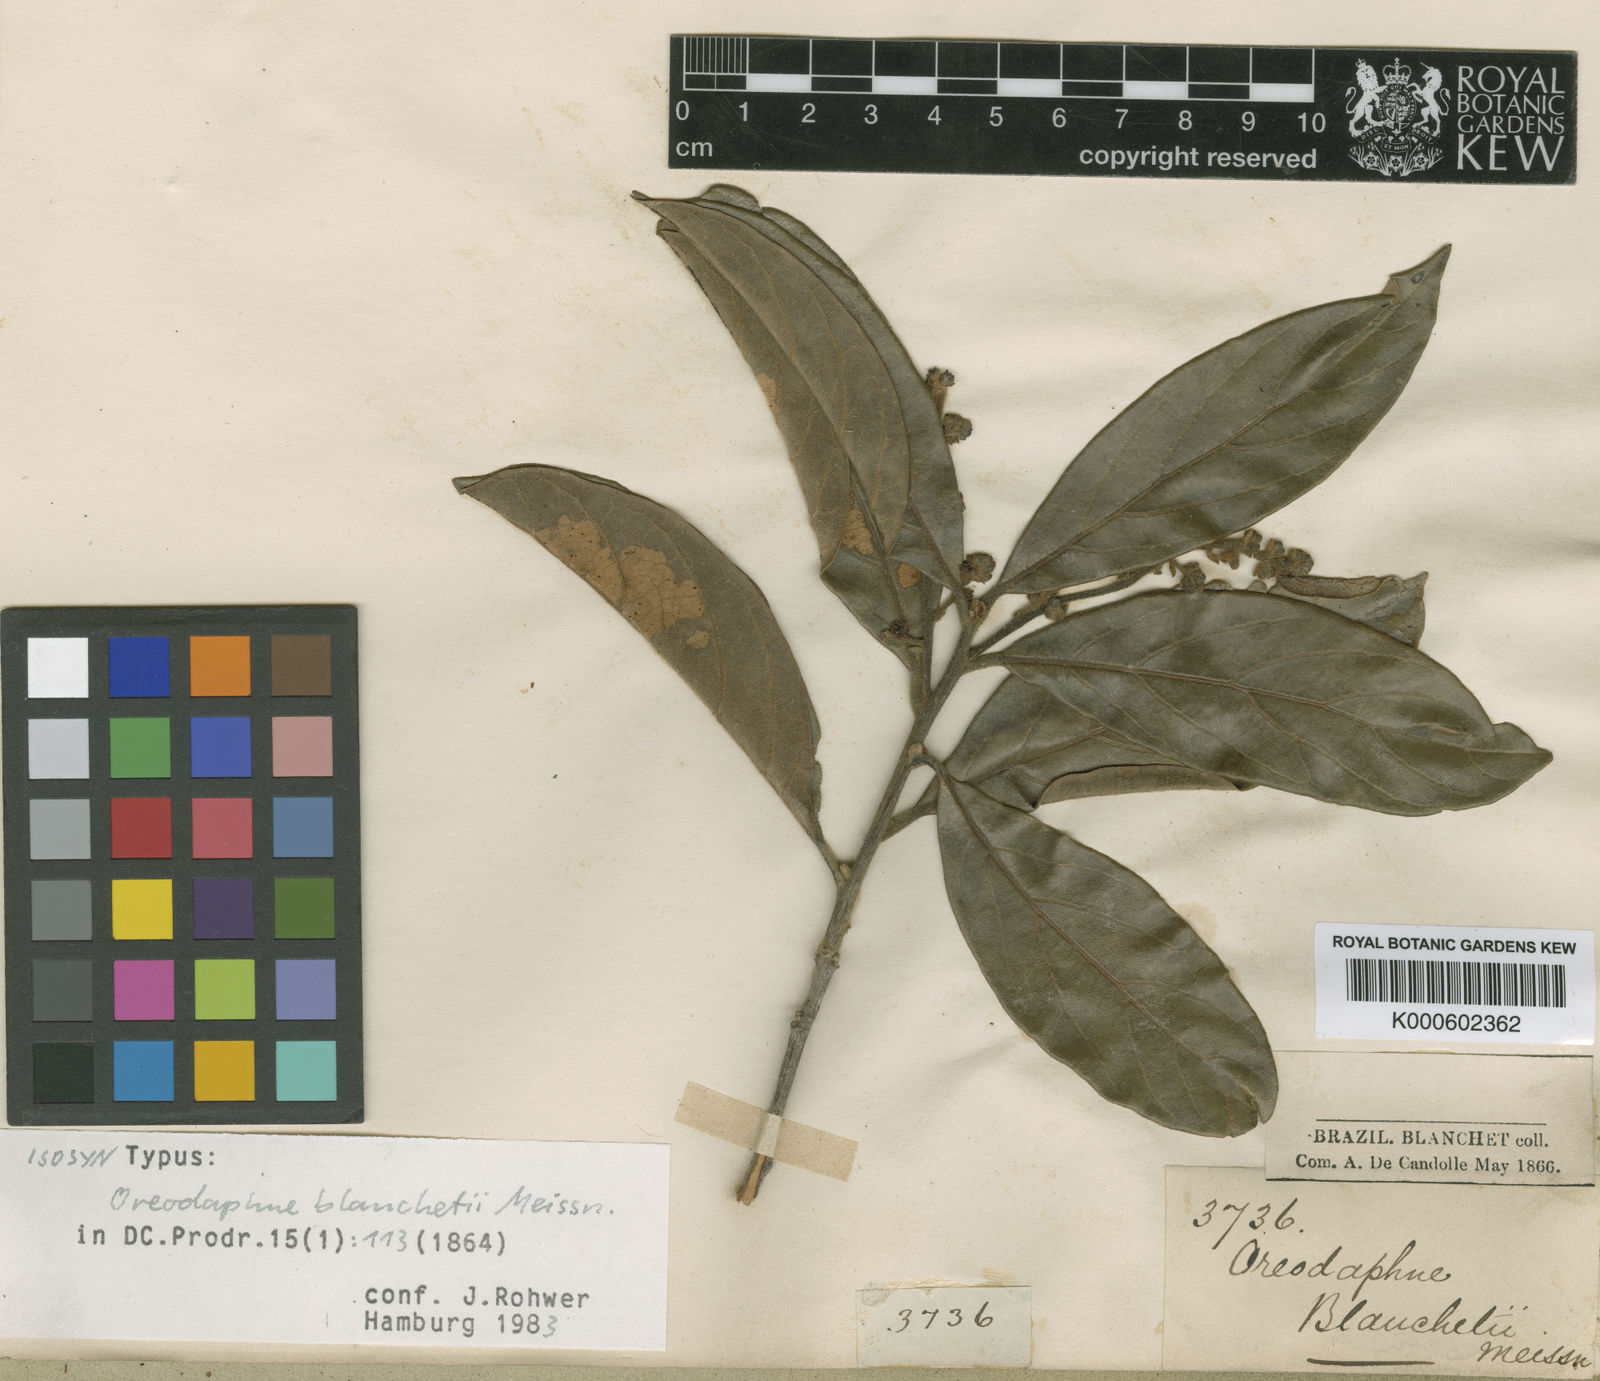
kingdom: Plantae
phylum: Tracheophyta
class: Magnoliopsida
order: Laurales
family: Lauraceae
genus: Andea
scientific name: Andea velutina
